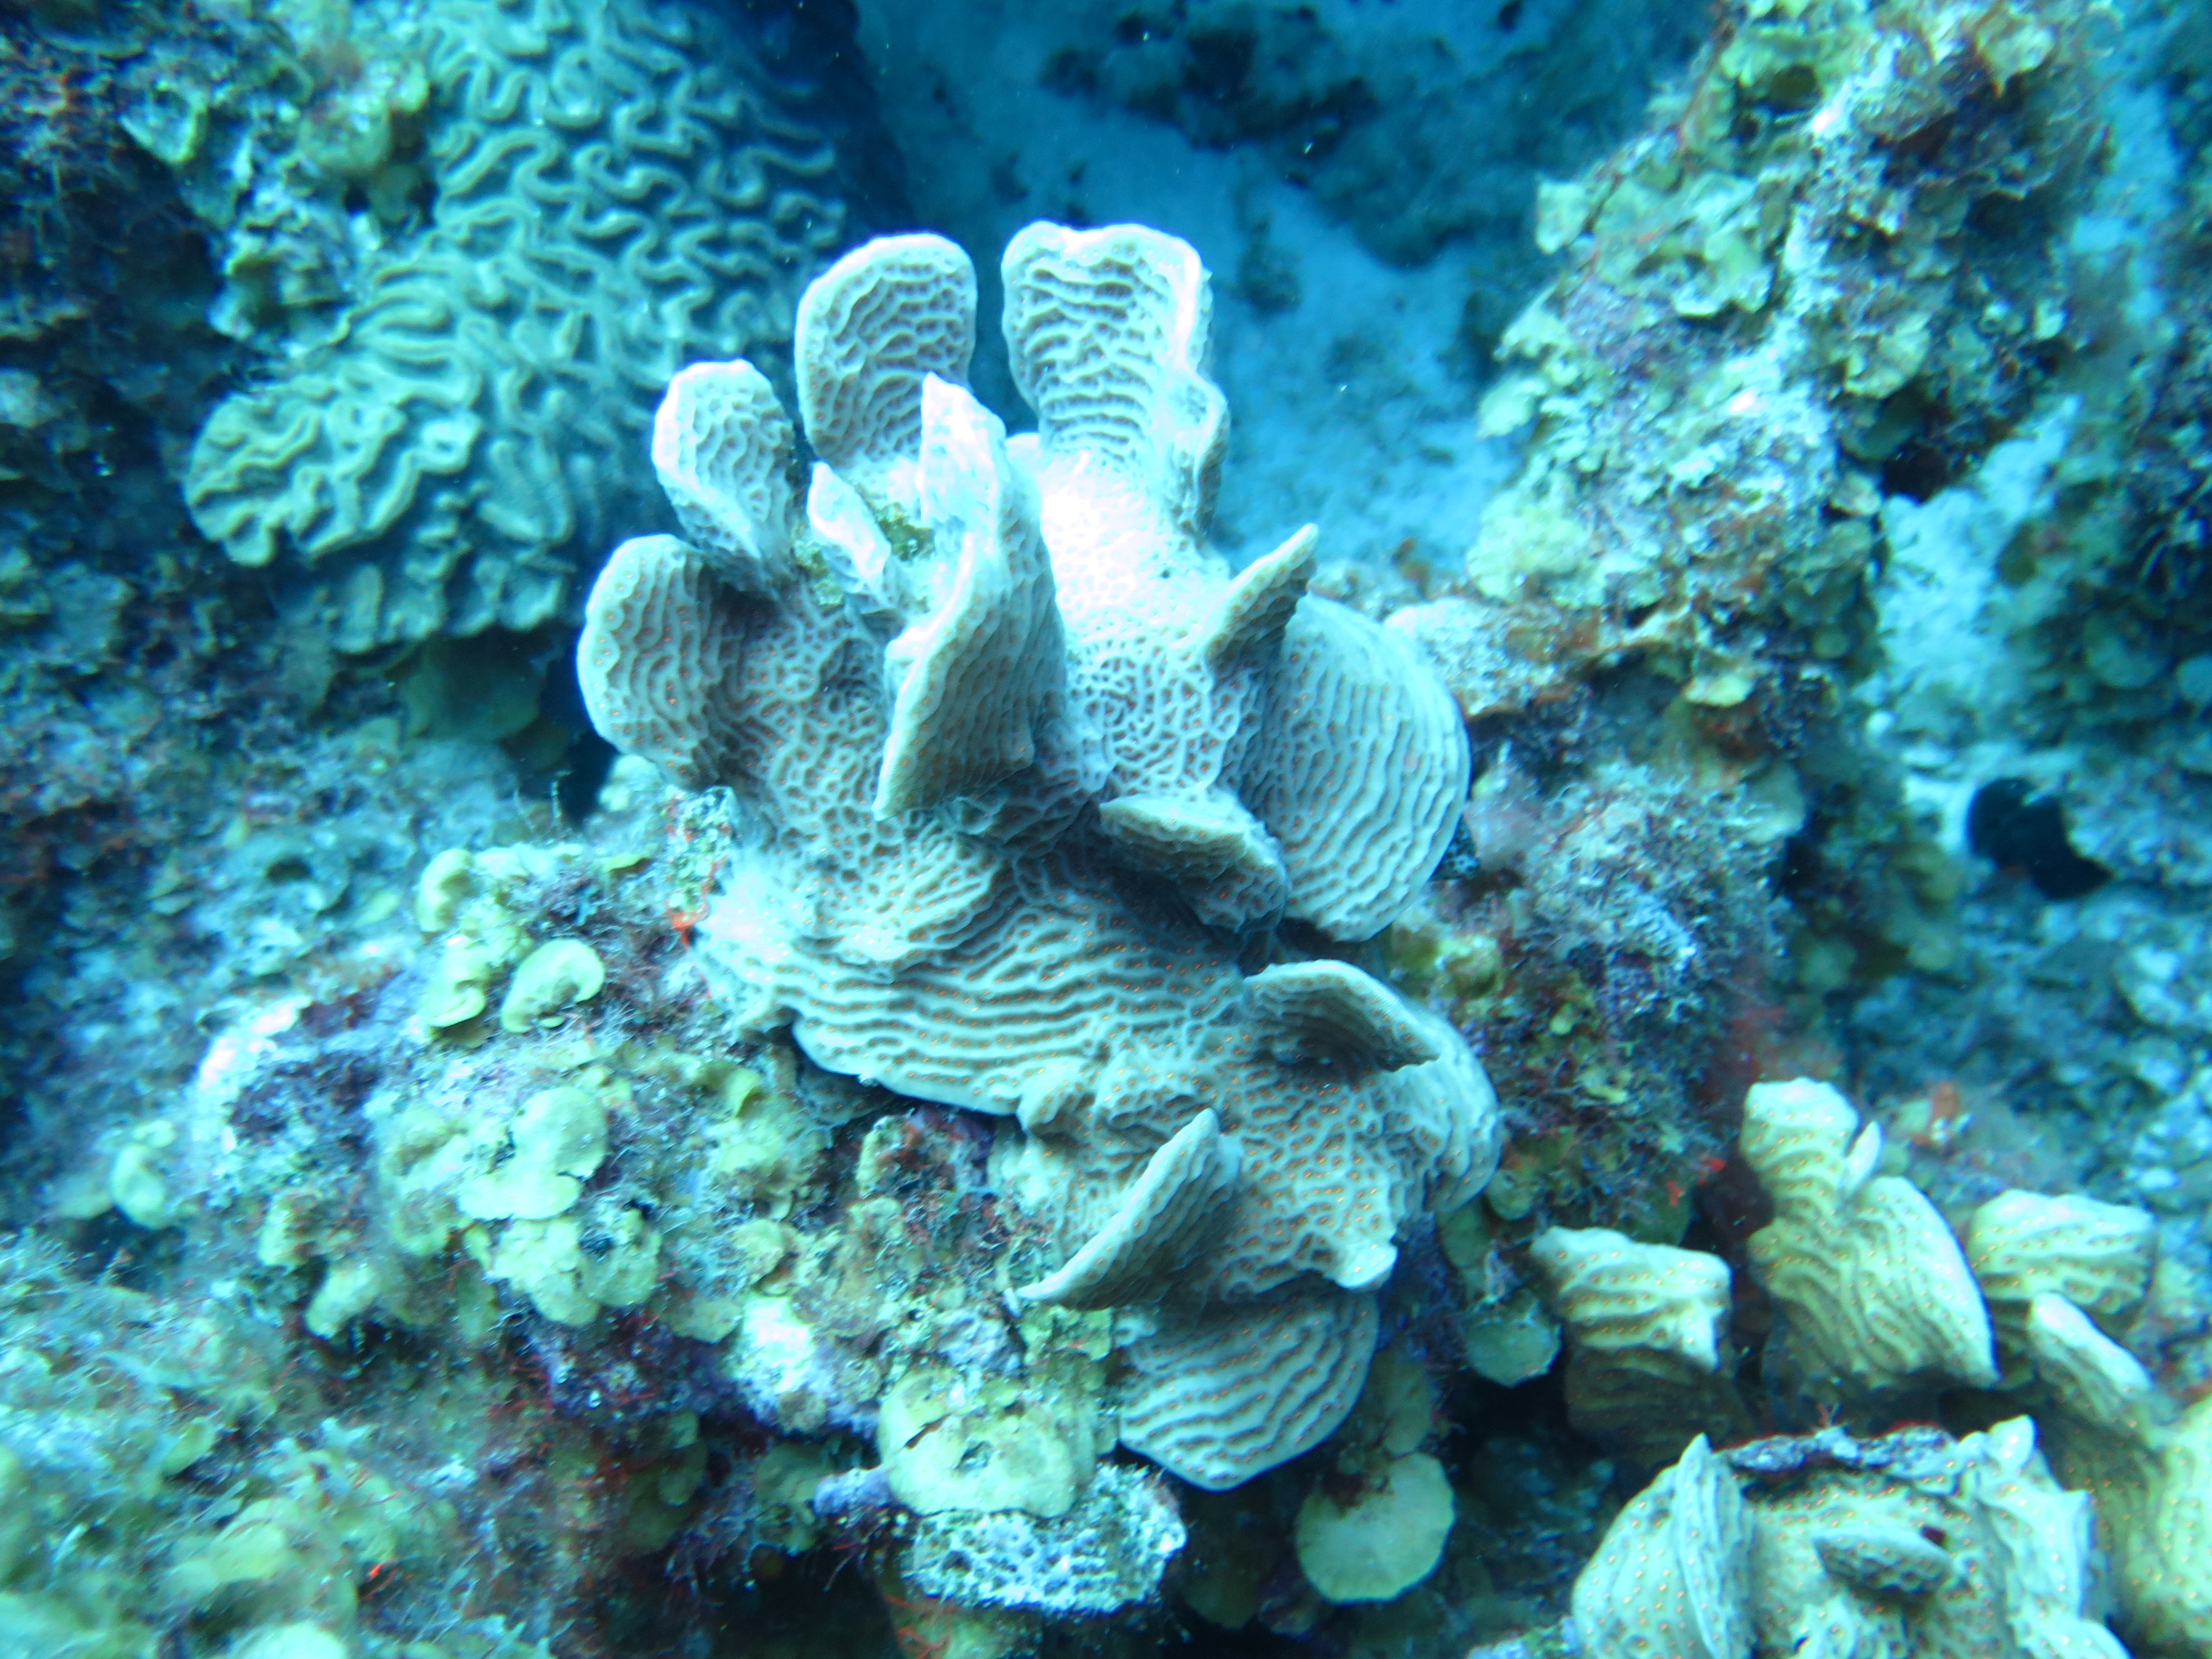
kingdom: Animalia
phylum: Cnidaria
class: Anthozoa
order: Scleractinia
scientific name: Scleractinia
